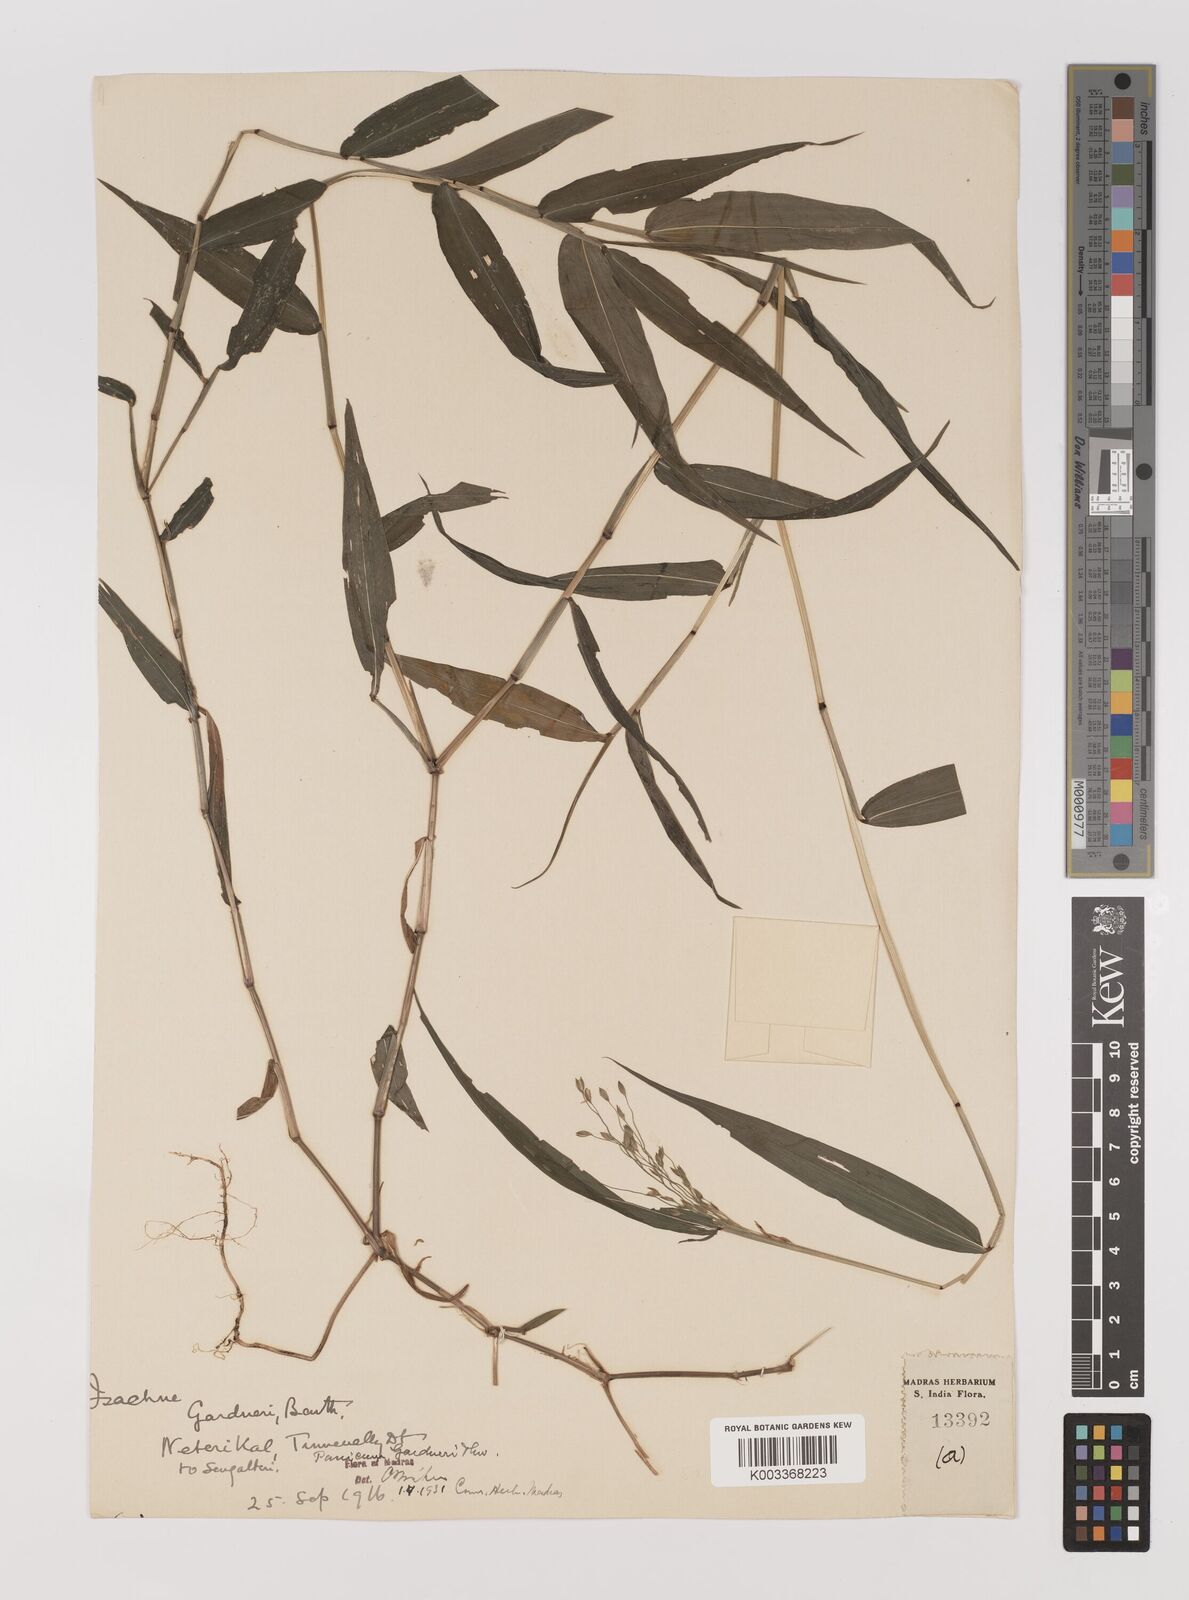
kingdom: Plantae
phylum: Tracheophyta
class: Liliopsida
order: Poales
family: Poaceae
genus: Panicum
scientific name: Panicum gardneri
